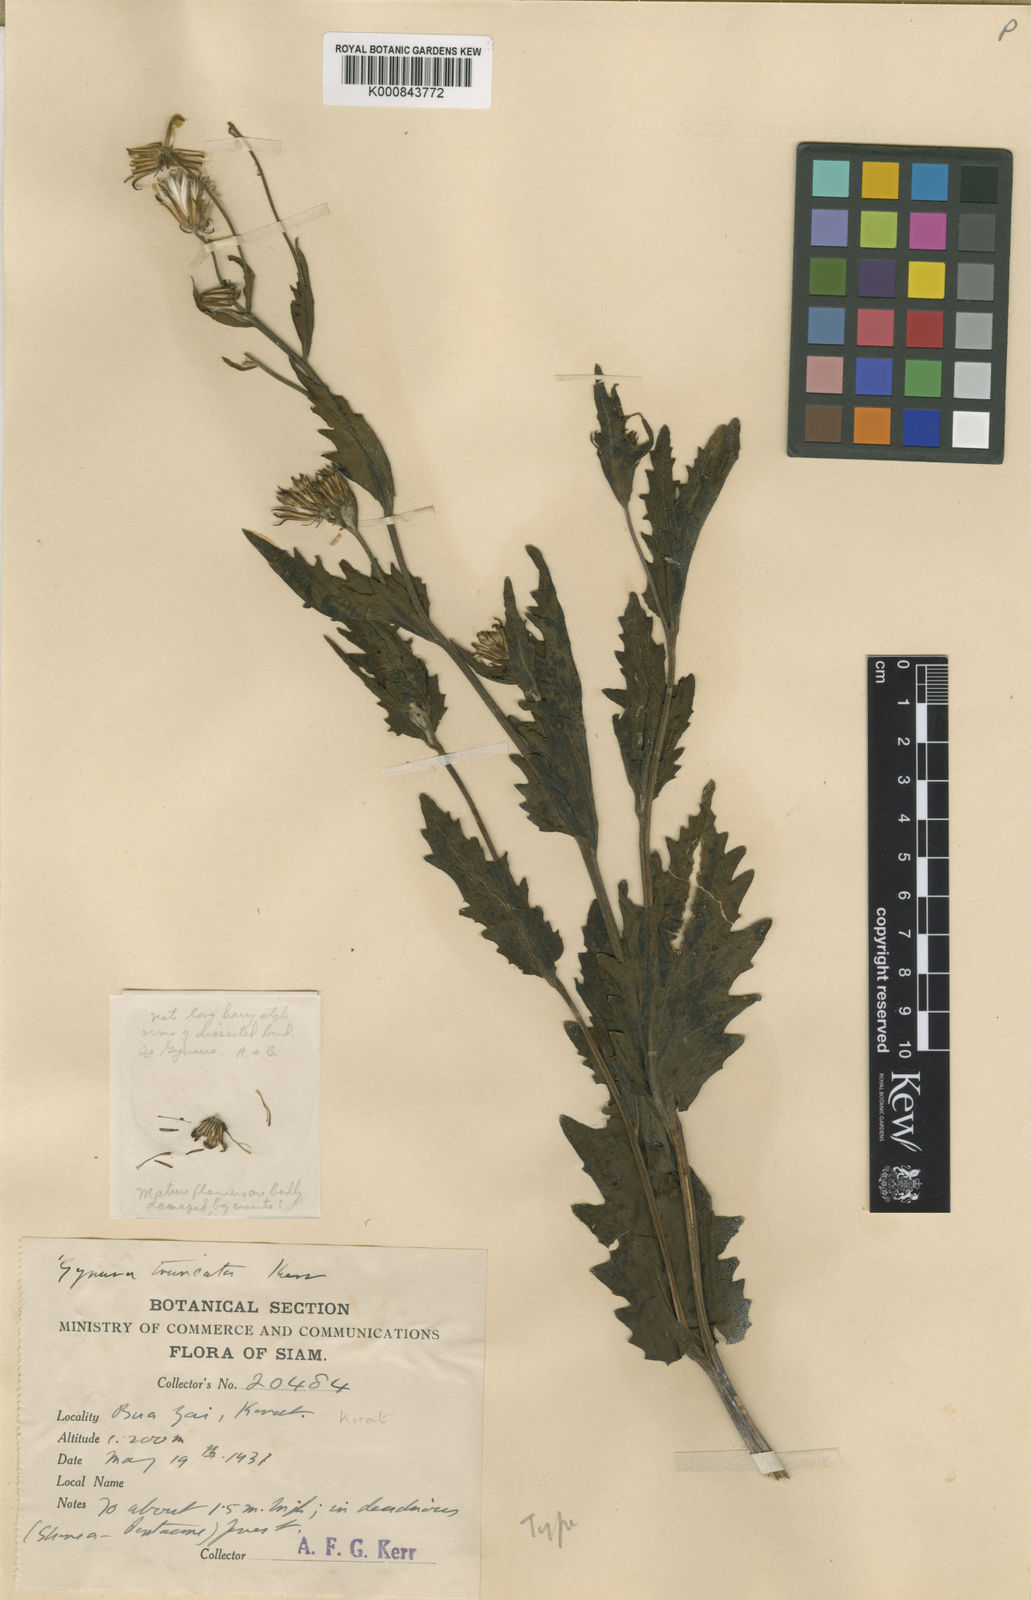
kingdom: Plantae
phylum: Tracheophyta
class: Magnoliopsida
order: Asterales
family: Asteraceae
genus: Gynura
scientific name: Gynura japonica
